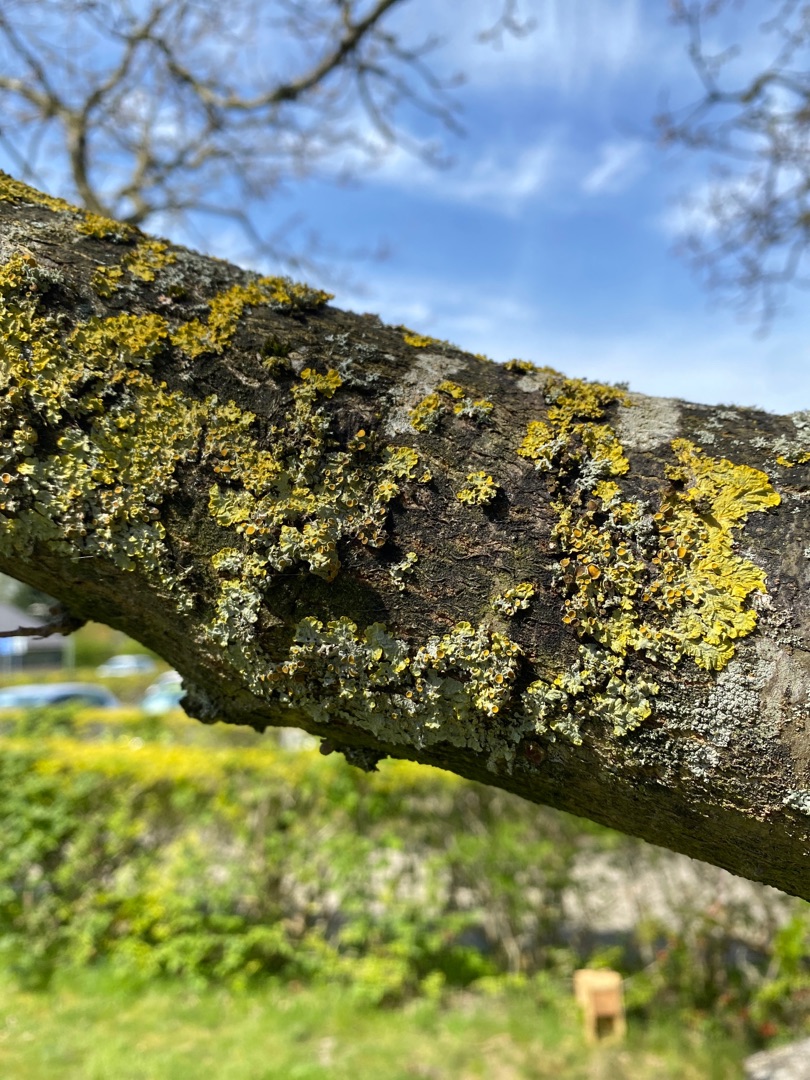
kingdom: Fungi
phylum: Ascomycota
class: Lecanoromycetes
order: Teloschistales
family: Teloschistaceae
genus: Xanthoria
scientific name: Xanthoria parietina
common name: Almindelig væggelav
